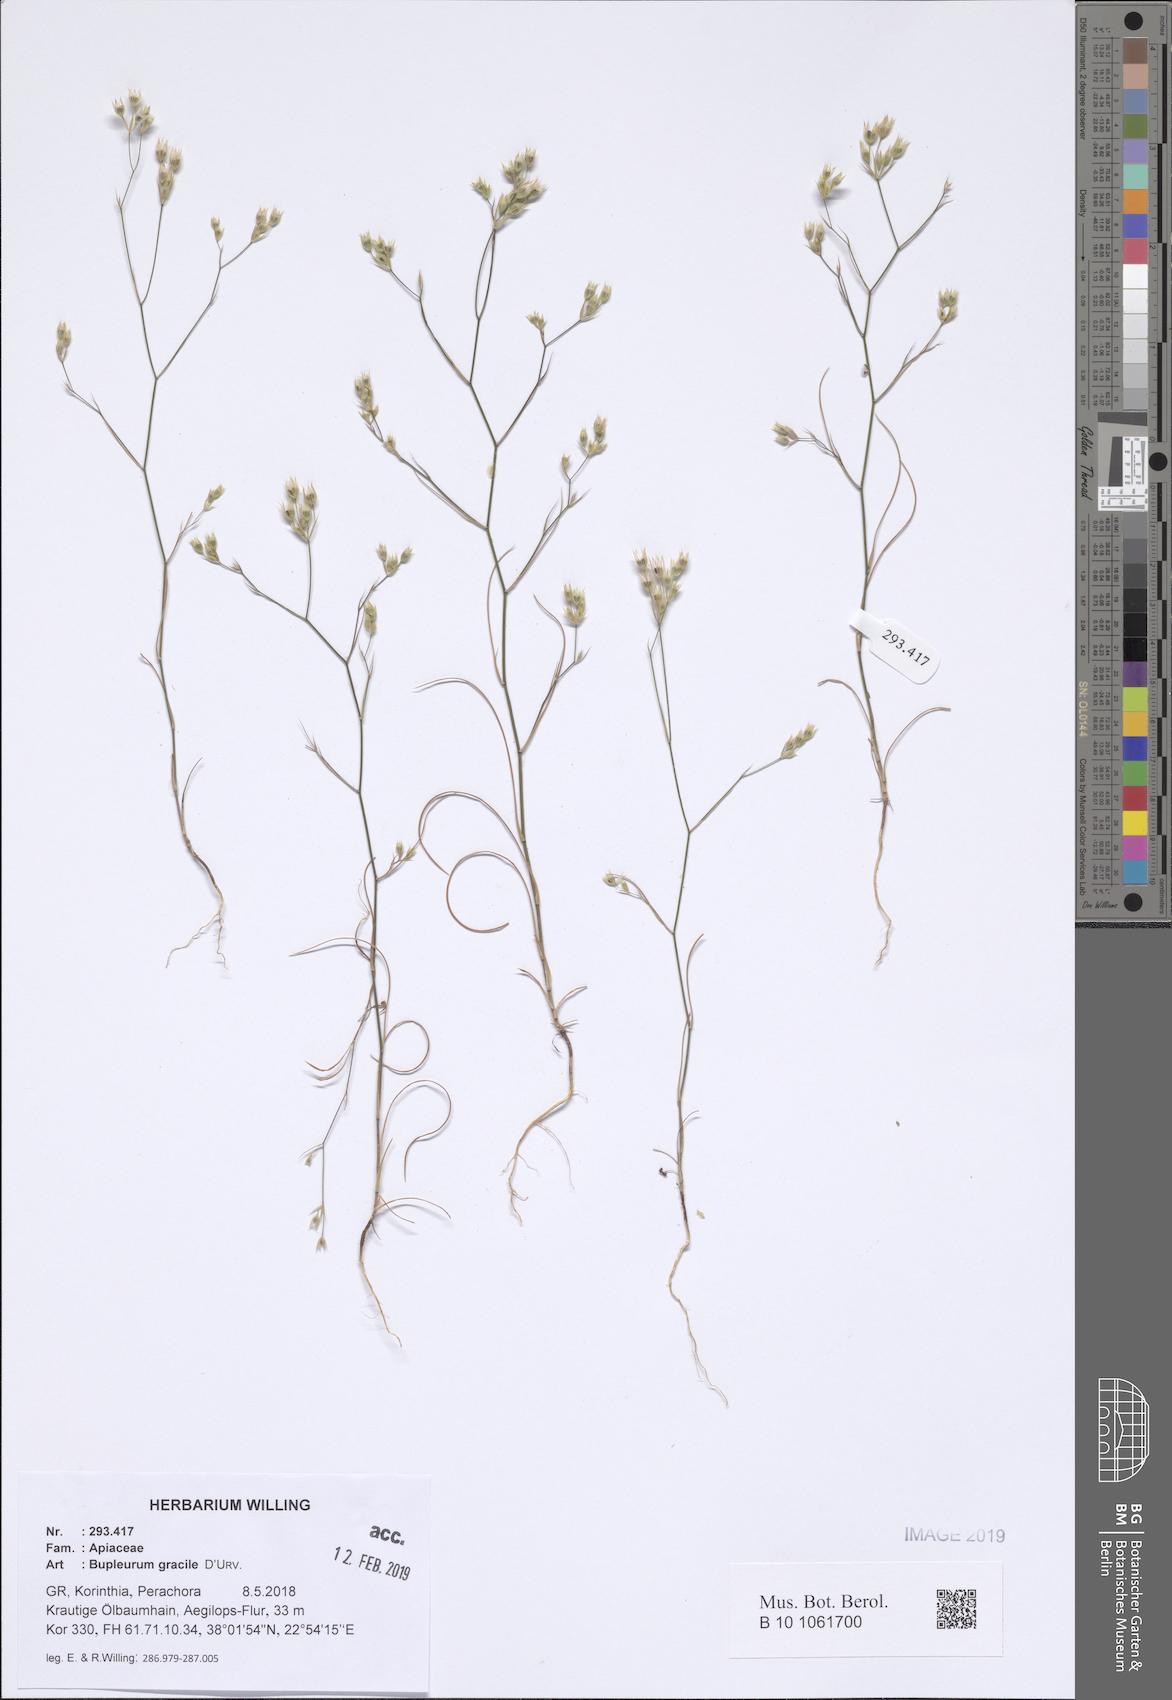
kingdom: Plantae
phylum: Tracheophyta
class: Magnoliopsida
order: Apiales
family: Apiaceae
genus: Bupleurum
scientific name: Bupleurum gracile
